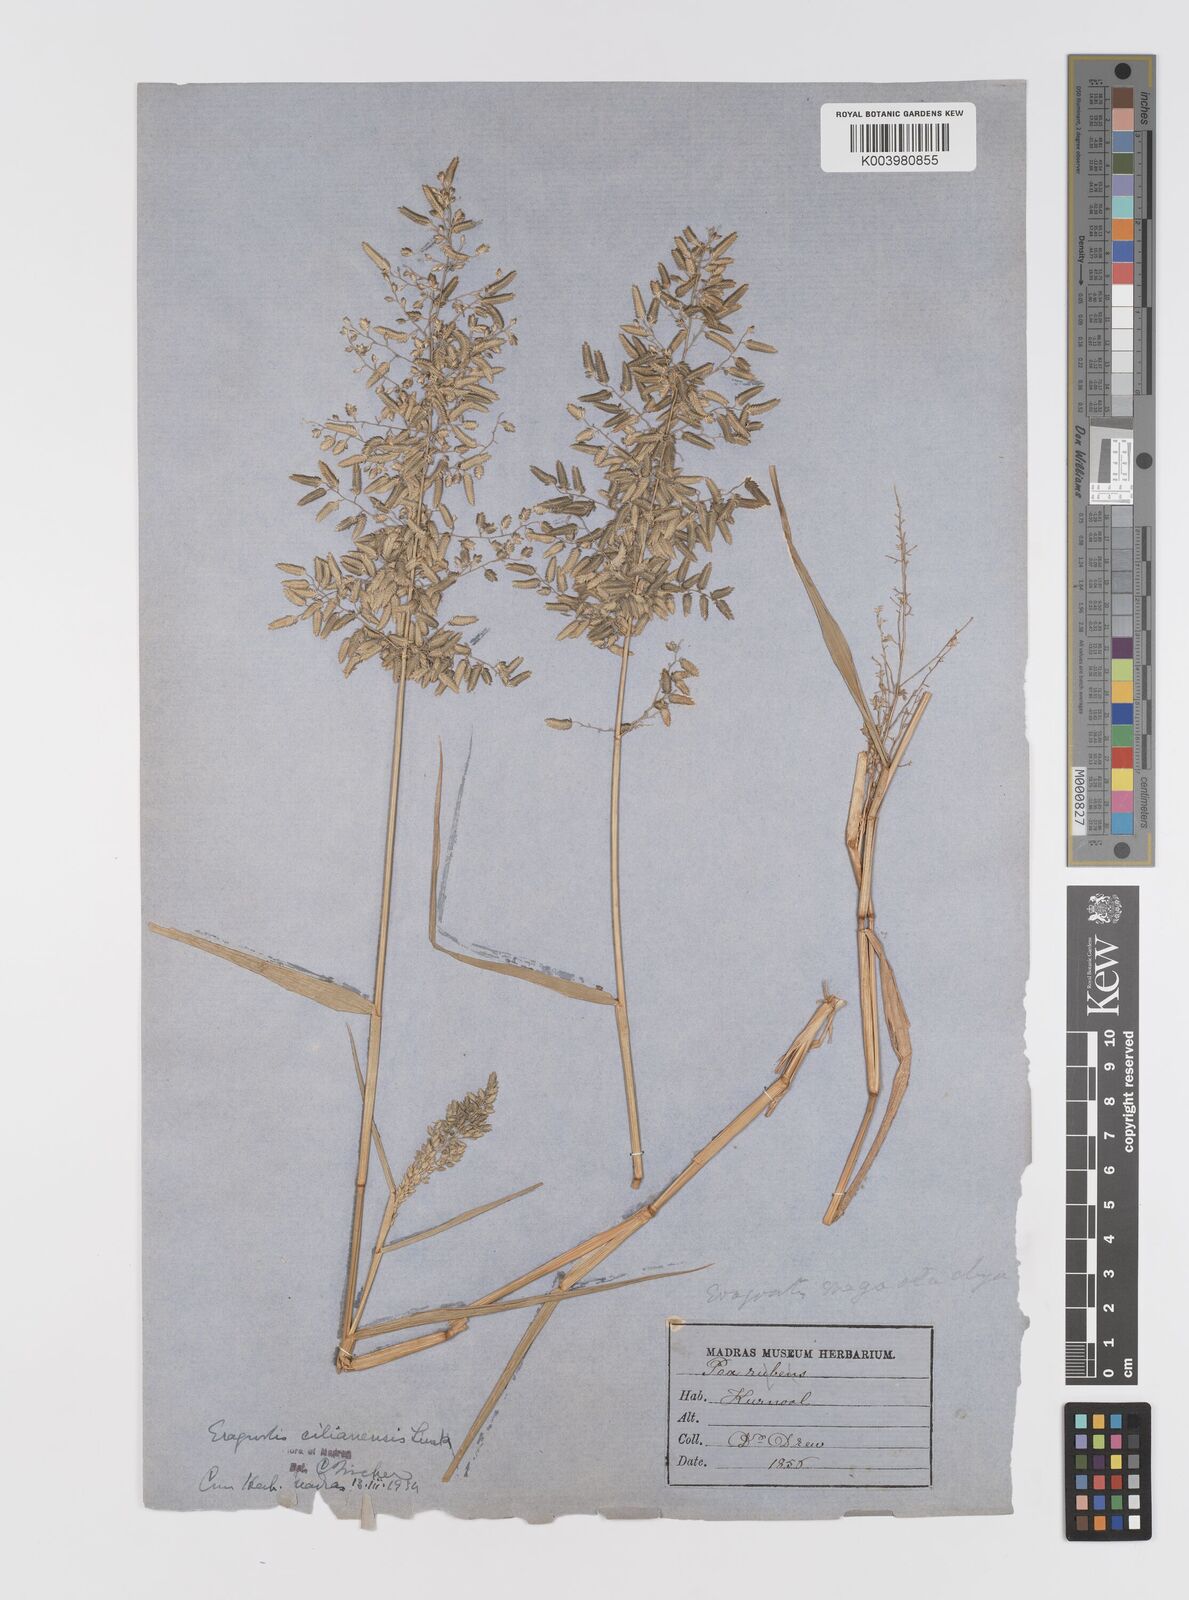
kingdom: Plantae
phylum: Tracheophyta
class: Liliopsida
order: Poales
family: Poaceae
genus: Eragrostis
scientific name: Eragrostis cilianensis
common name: Stinkgrass
